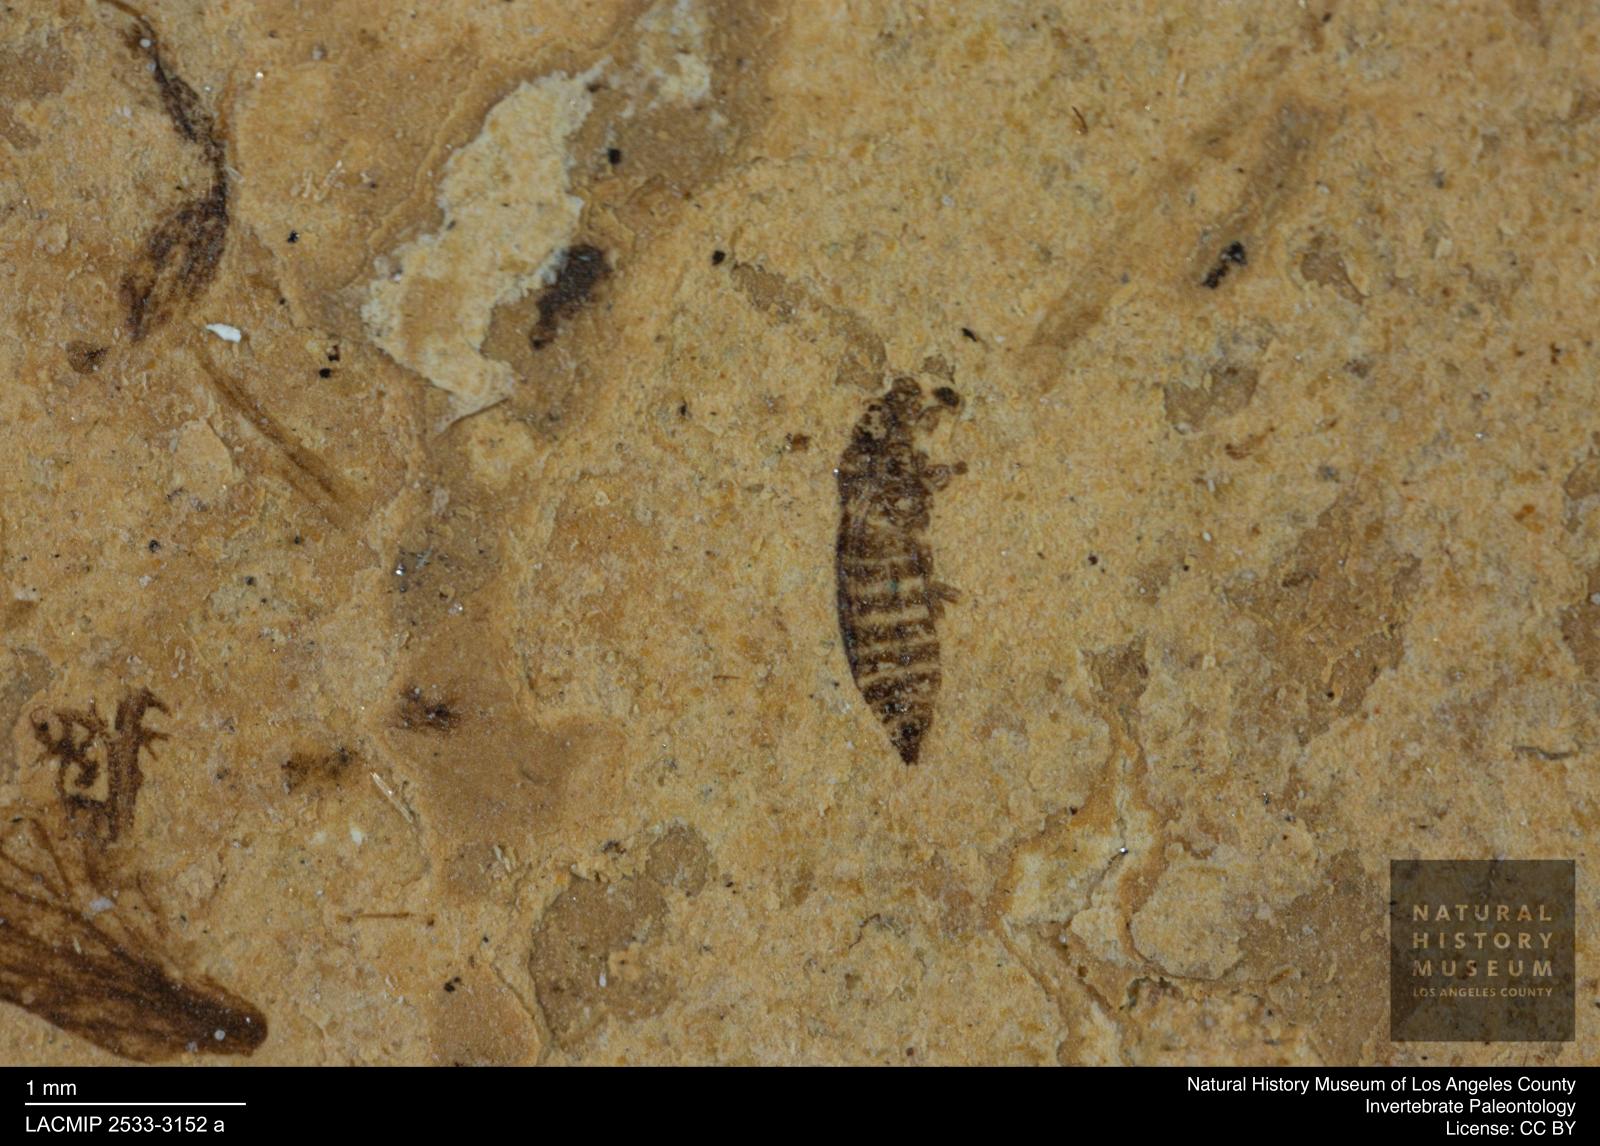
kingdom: Animalia
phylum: Arthropoda
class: Insecta
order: Thysanoptera
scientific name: Thysanoptera
